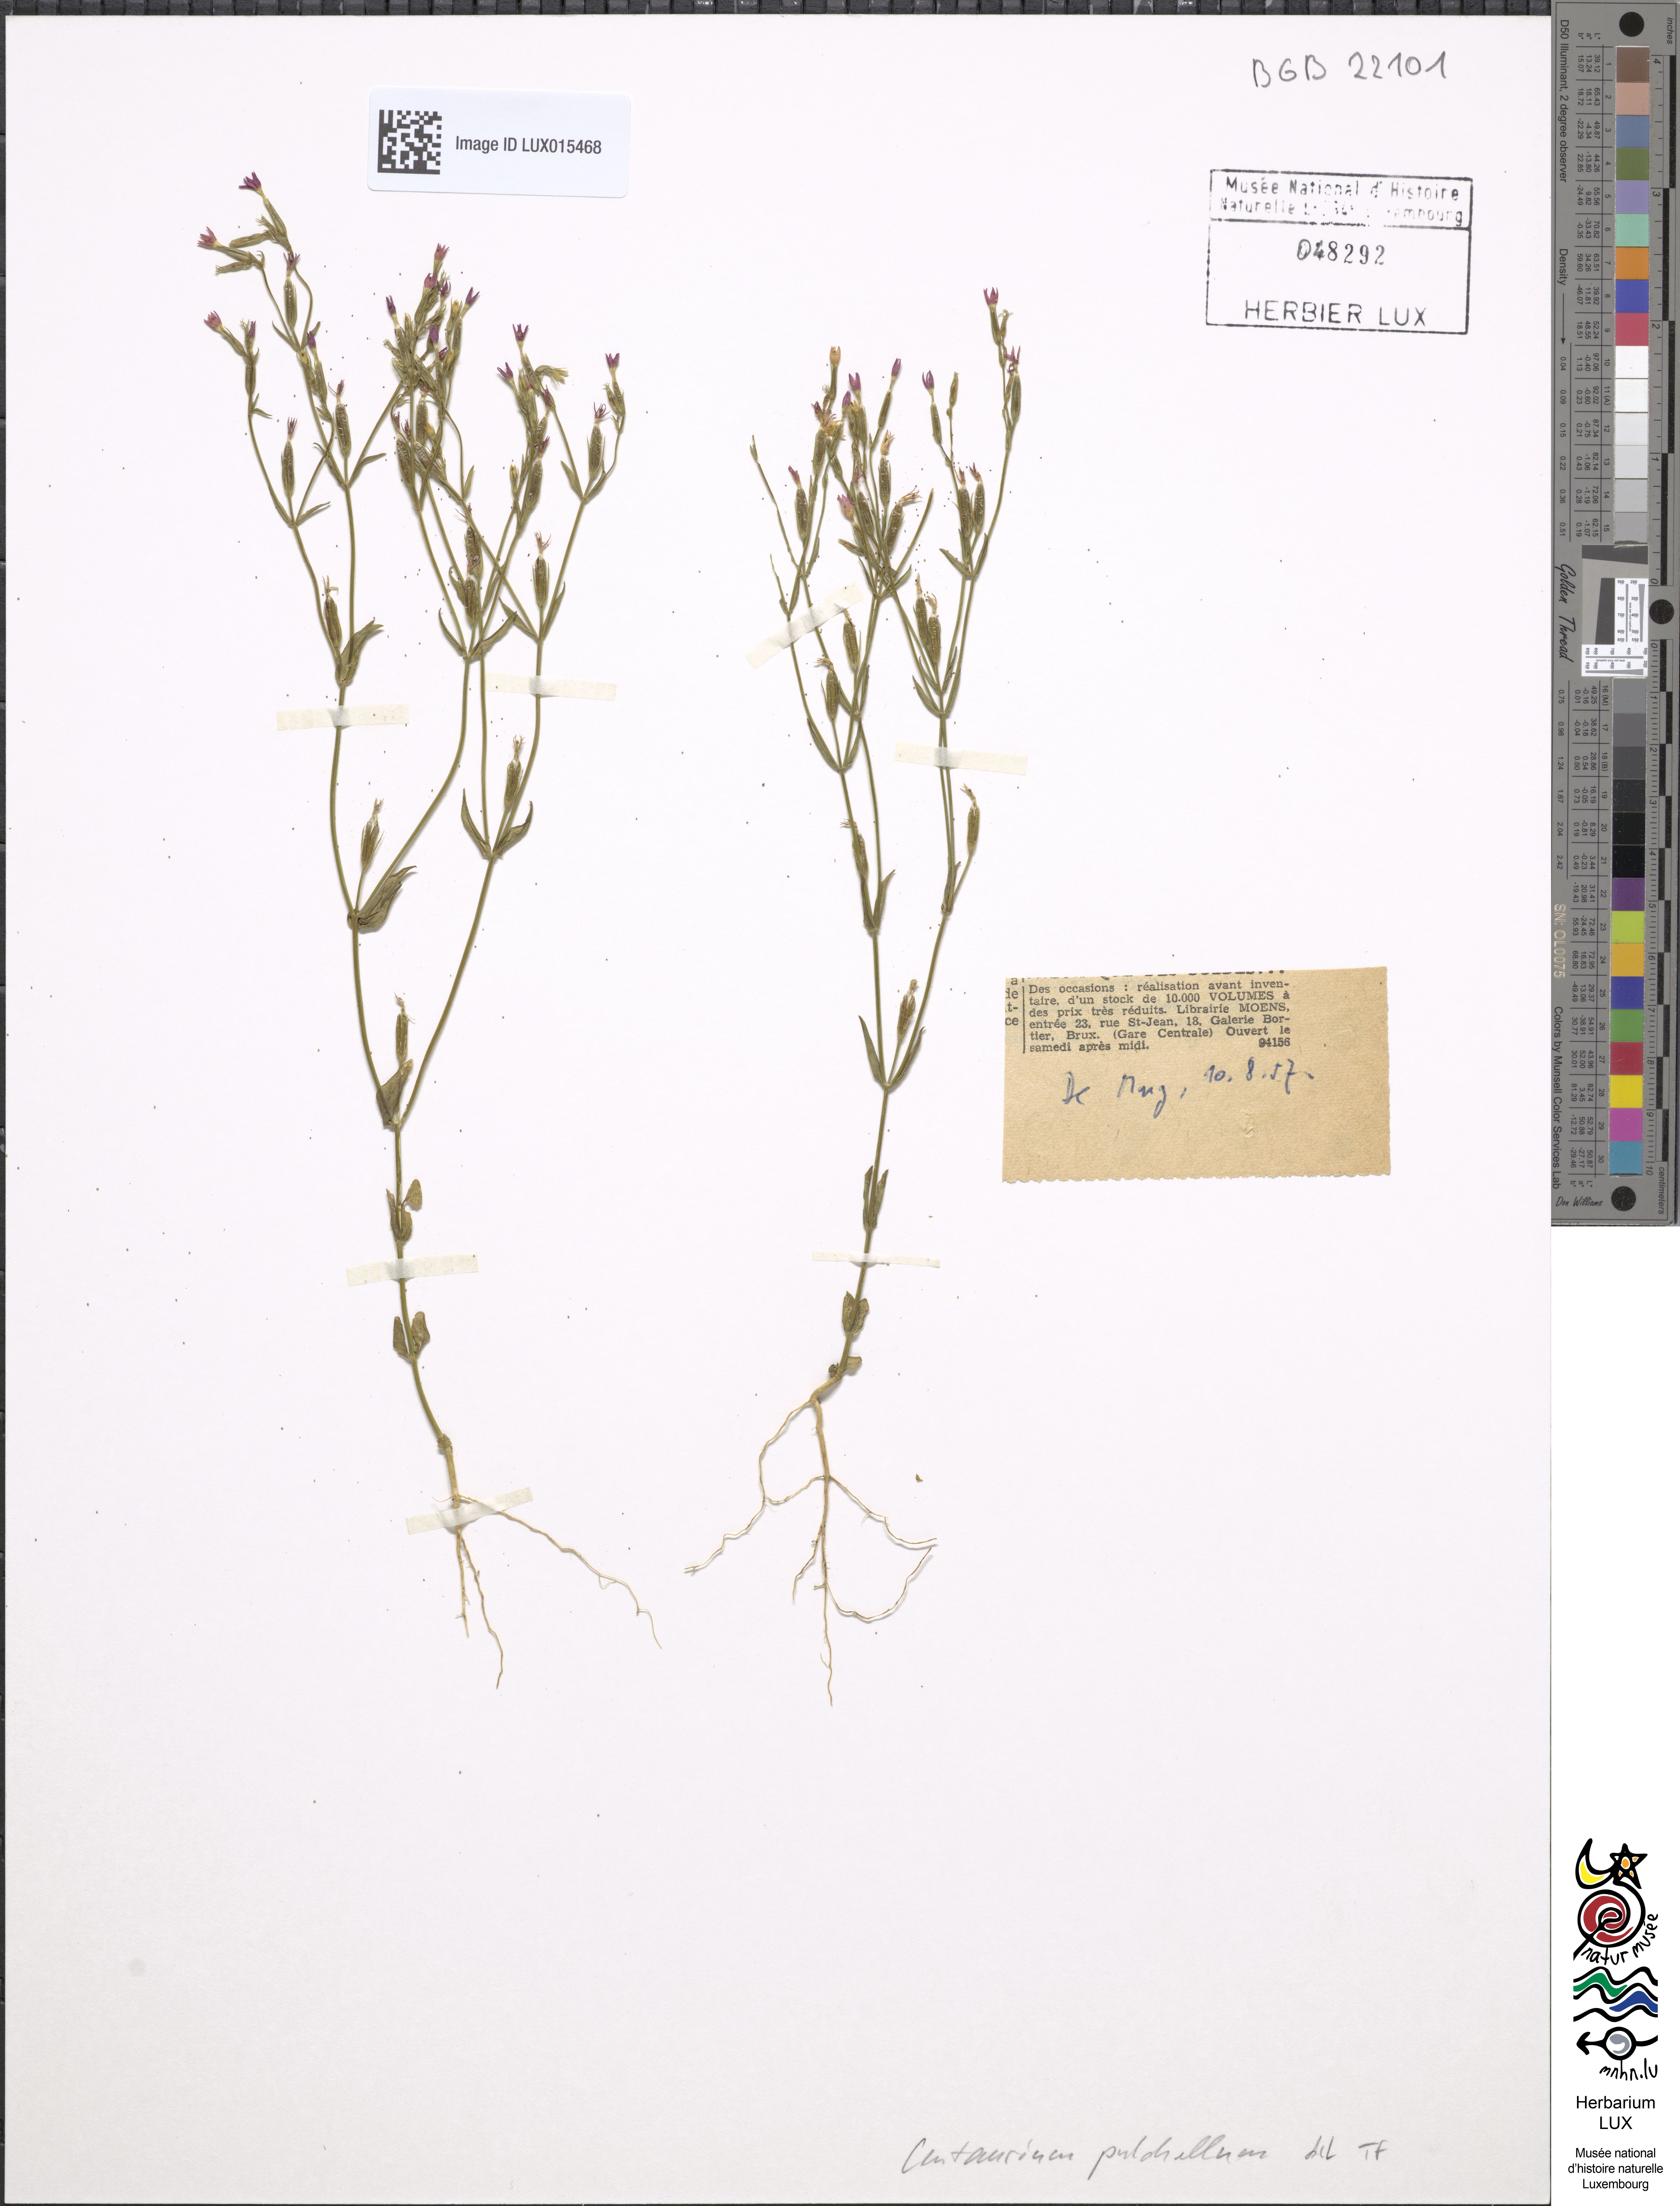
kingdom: Plantae
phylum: Tracheophyta
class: Magnoliopsida
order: Gentianales
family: Gentianaceae
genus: Centaurium
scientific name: Centaurium pulchellum
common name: Lesser centaury
